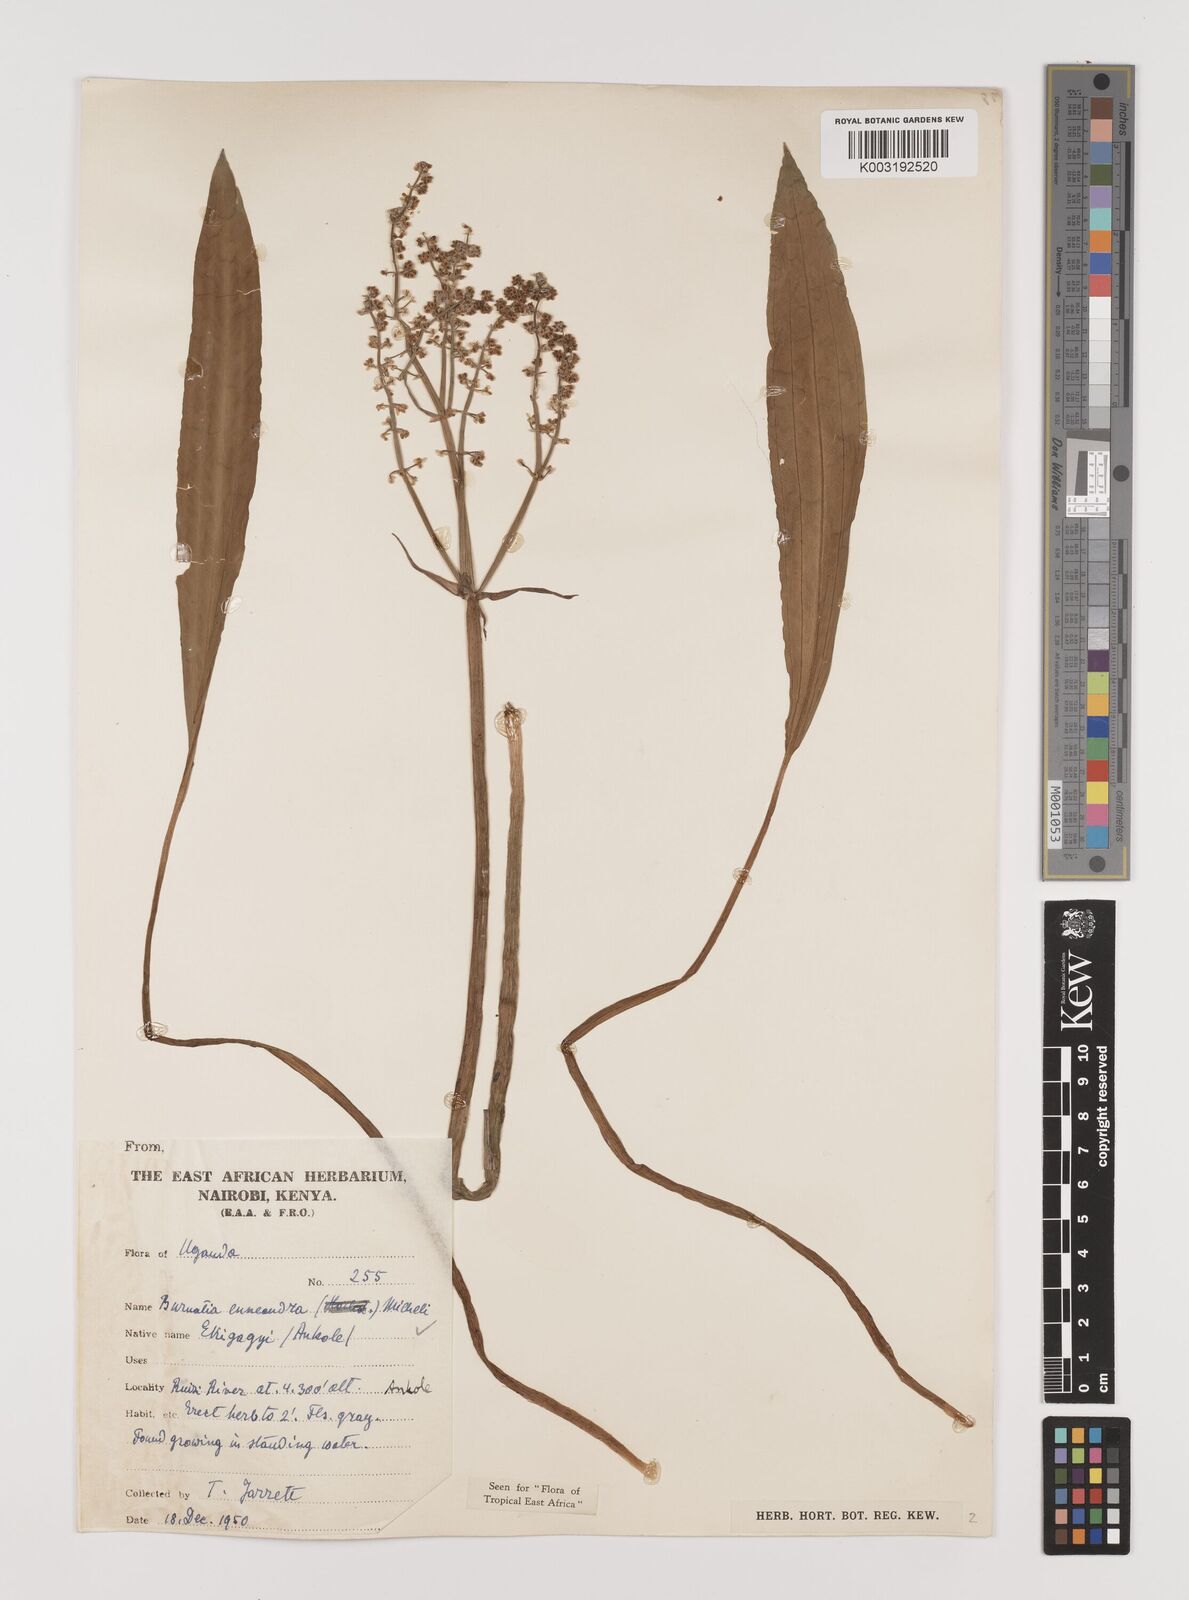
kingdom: Plantae
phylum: Tracheophyta
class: Liliopsida
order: Alismatales
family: Alismataceae
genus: Burnatia
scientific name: Burnatia enneandra
